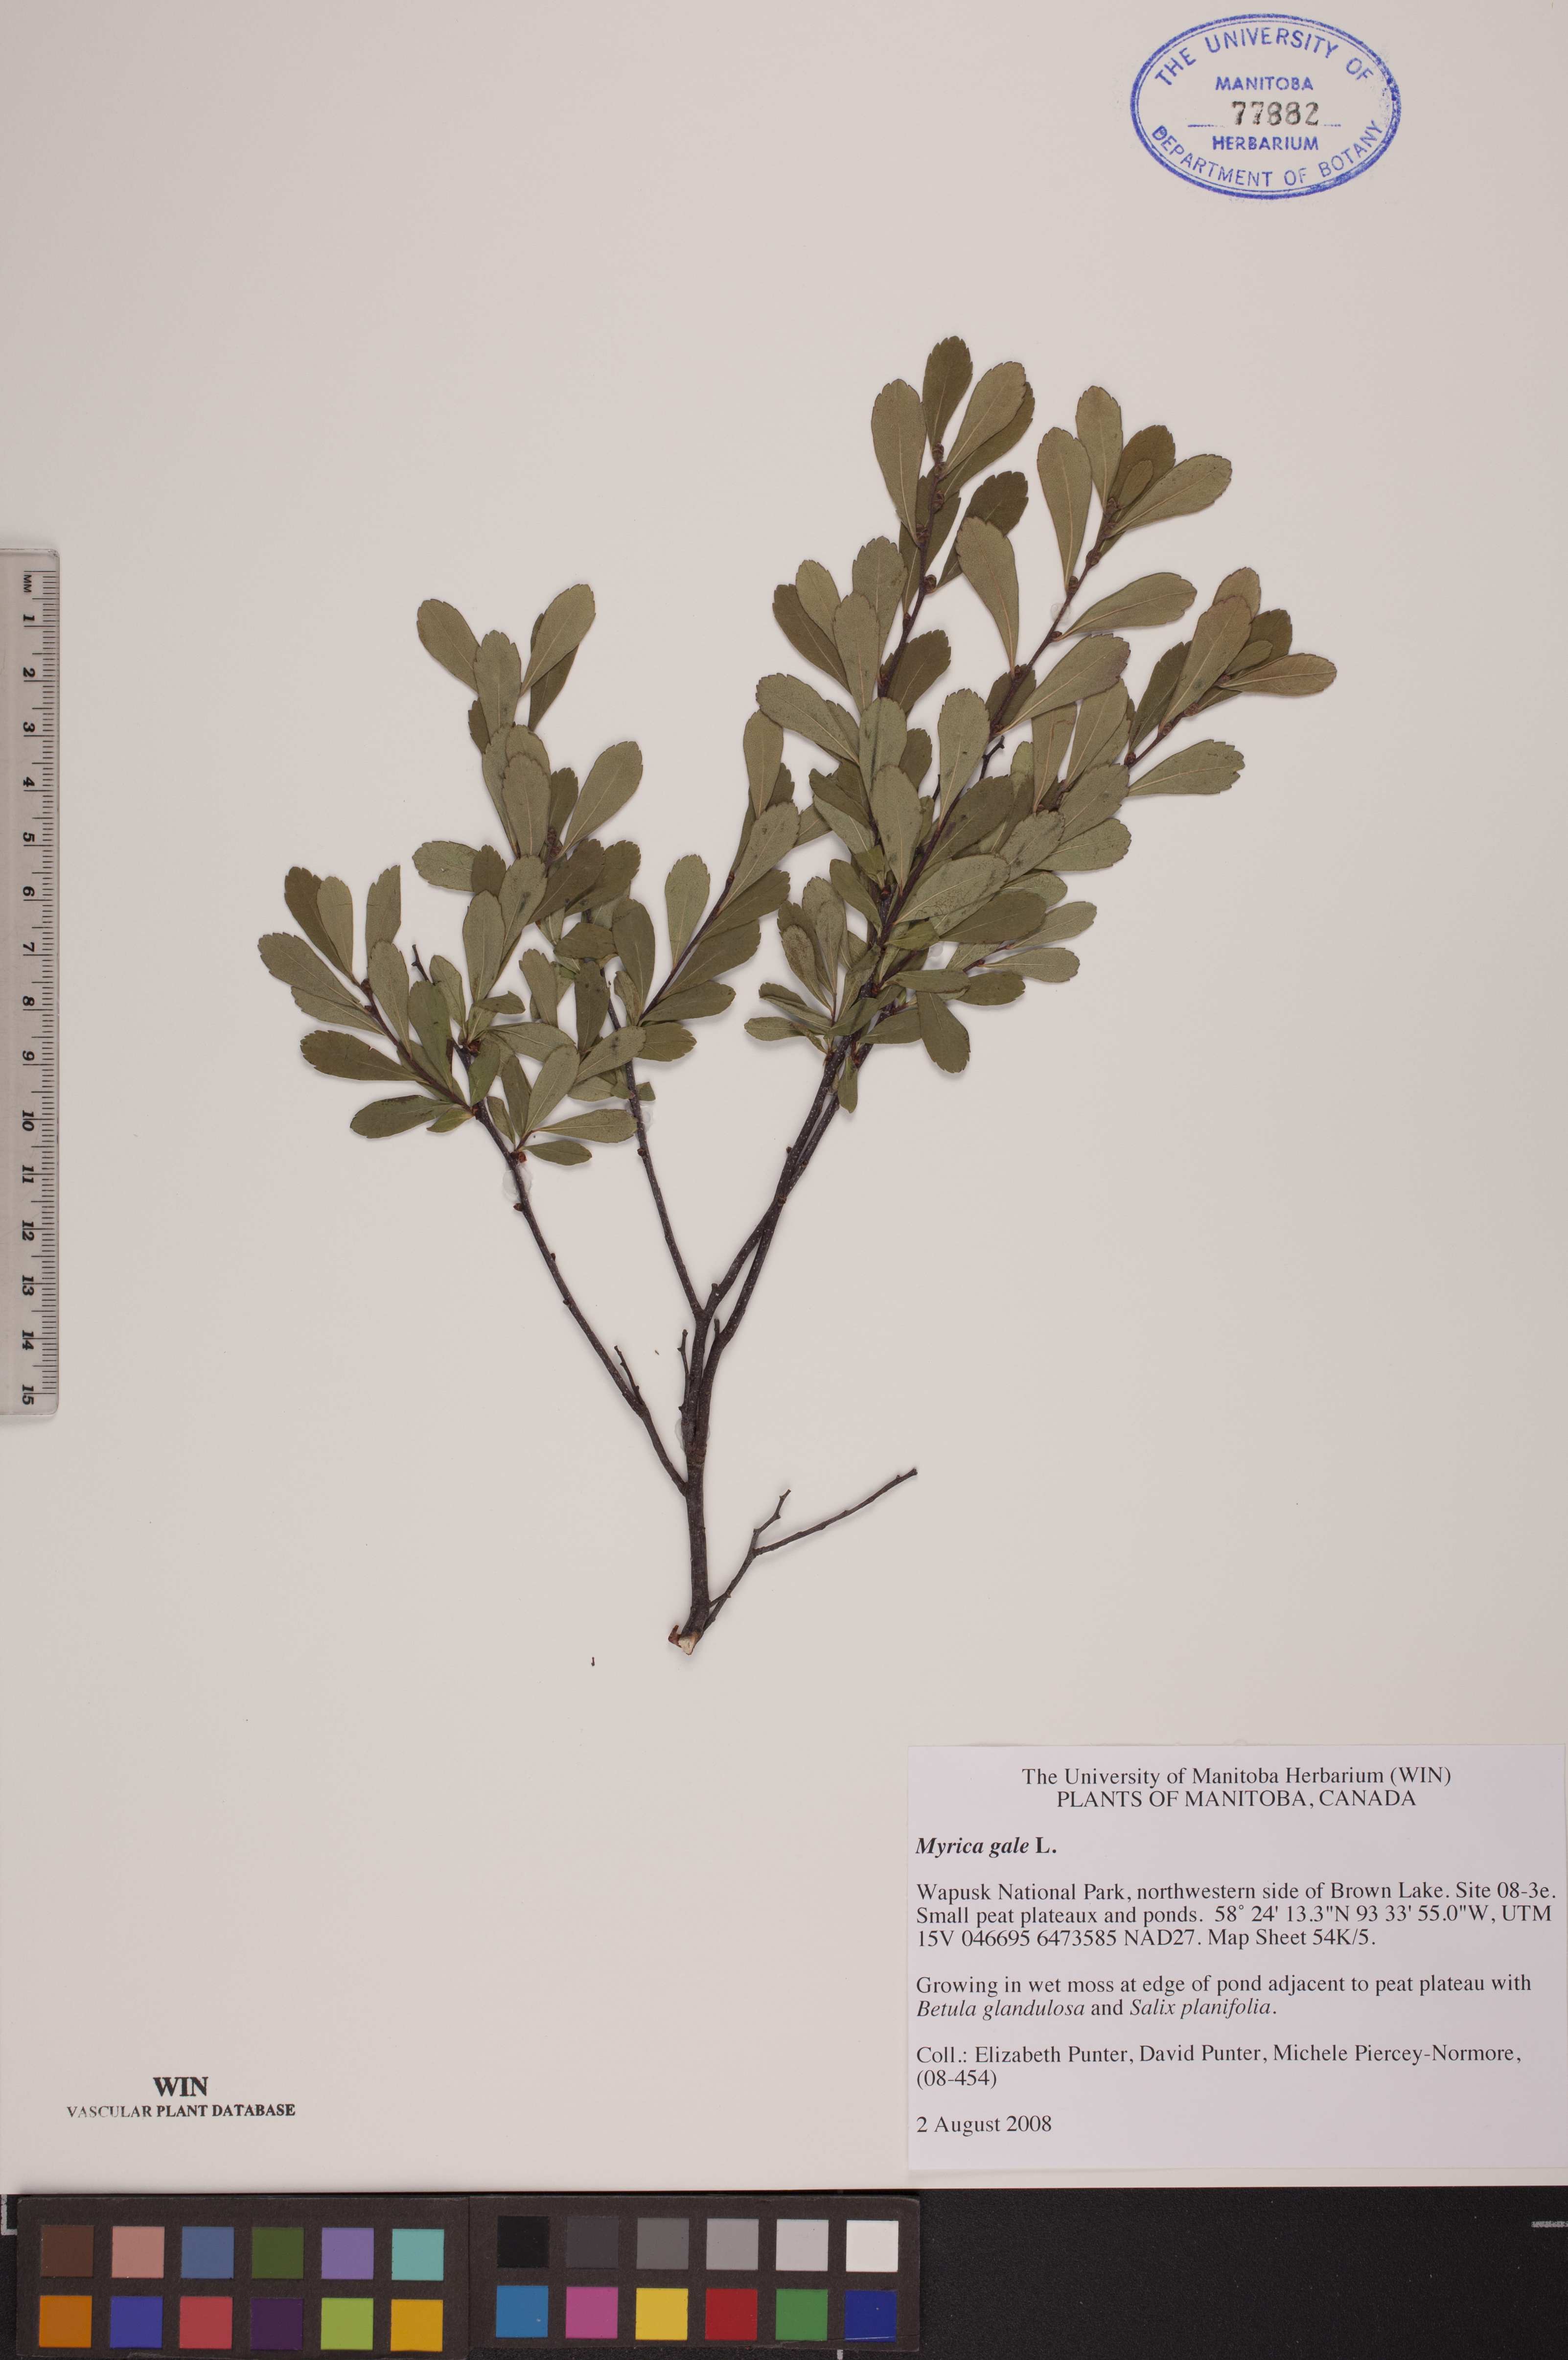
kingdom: Plantae
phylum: Tracheophyta
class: Magnoliopsida
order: Fagales
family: Myricaceae
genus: Myrica
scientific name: Myrica gale
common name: Sweet gale
